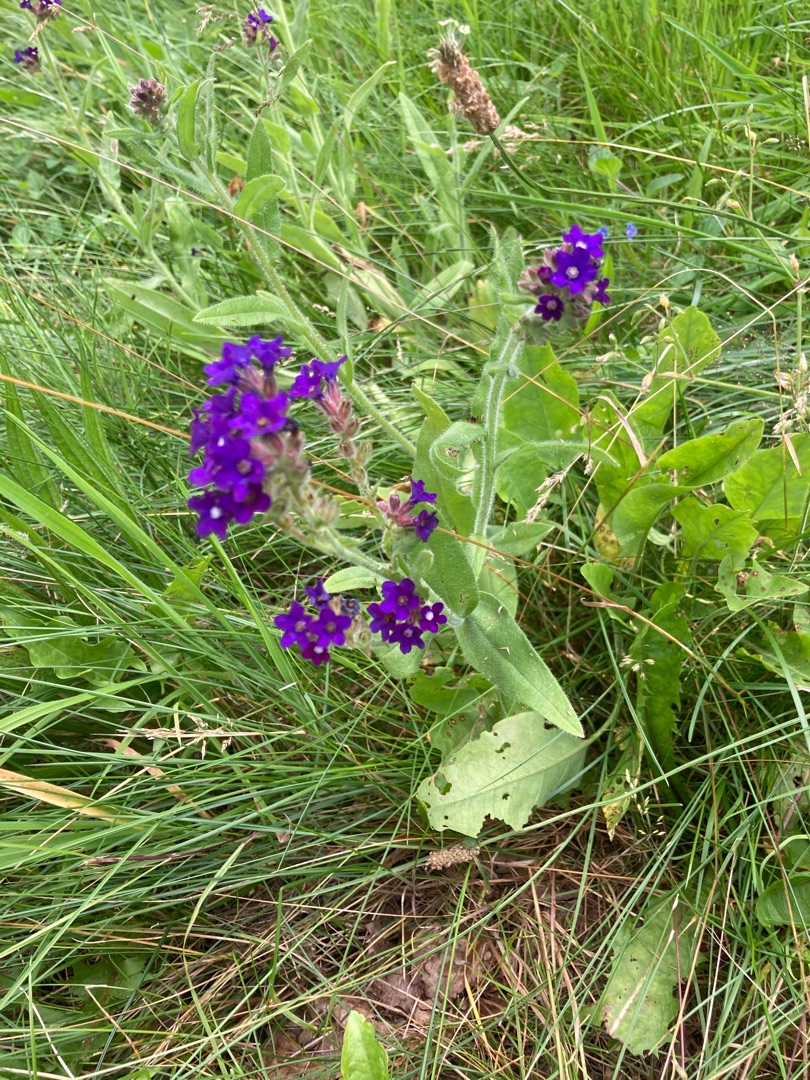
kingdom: Plantae
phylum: Tracheophyta
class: Magnoliopsida
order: Boraginales
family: Boraginaceae
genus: Anchusa
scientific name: Anchusa officinalis
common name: Læge-oksetunge
